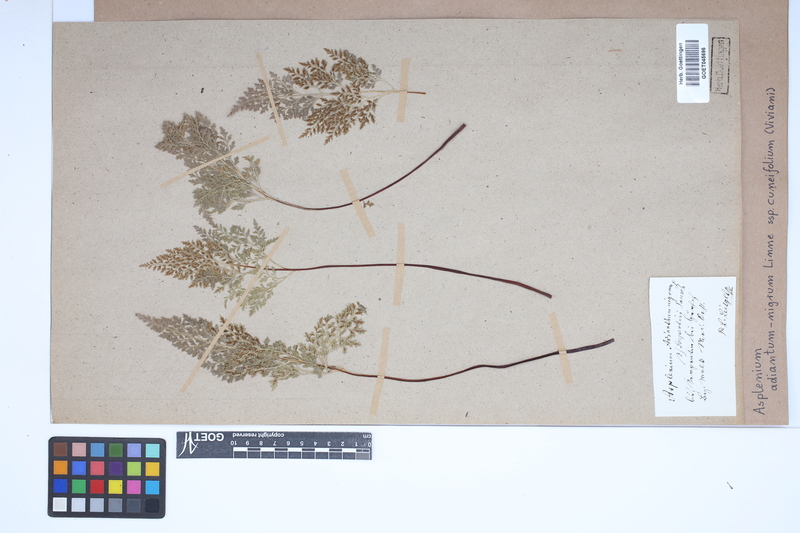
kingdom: Plantae
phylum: Tracheophyta
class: Polypodiopsida
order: Polypodiales
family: Aspleniaceae
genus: Asplenium
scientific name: Asplenium cuneifolium
